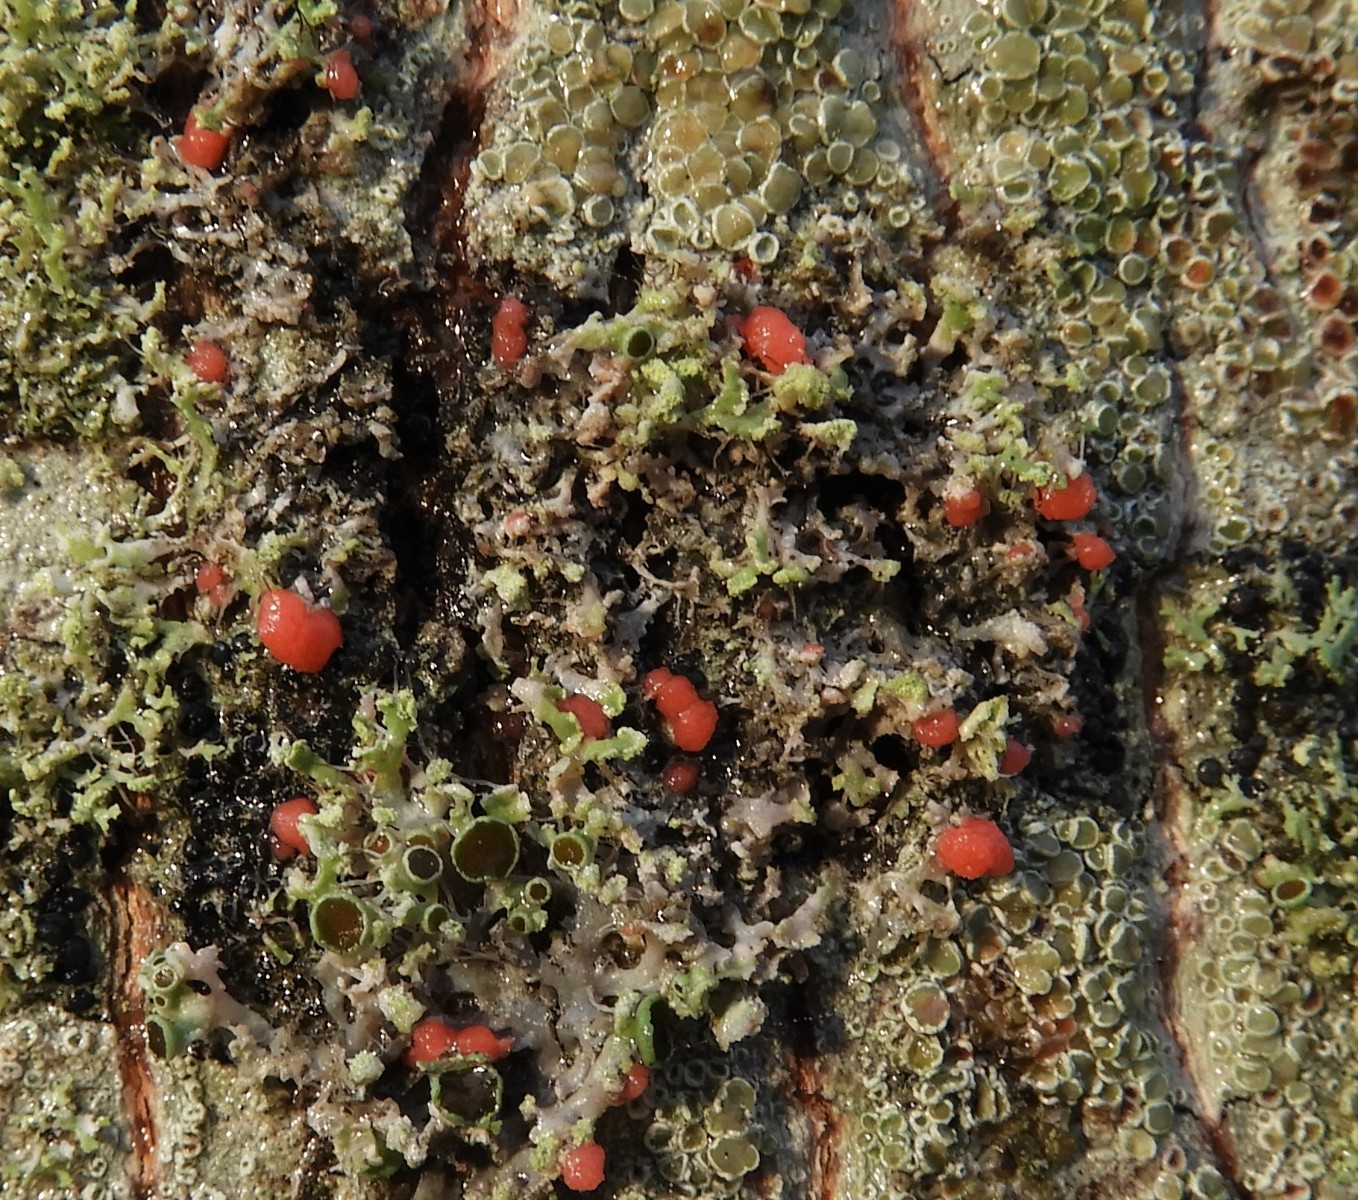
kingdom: Fungi
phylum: Ascomycota
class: Sordariomycetes
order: Hypocreales
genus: Illosporiopsis
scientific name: Illosporiopsis christiansenii
